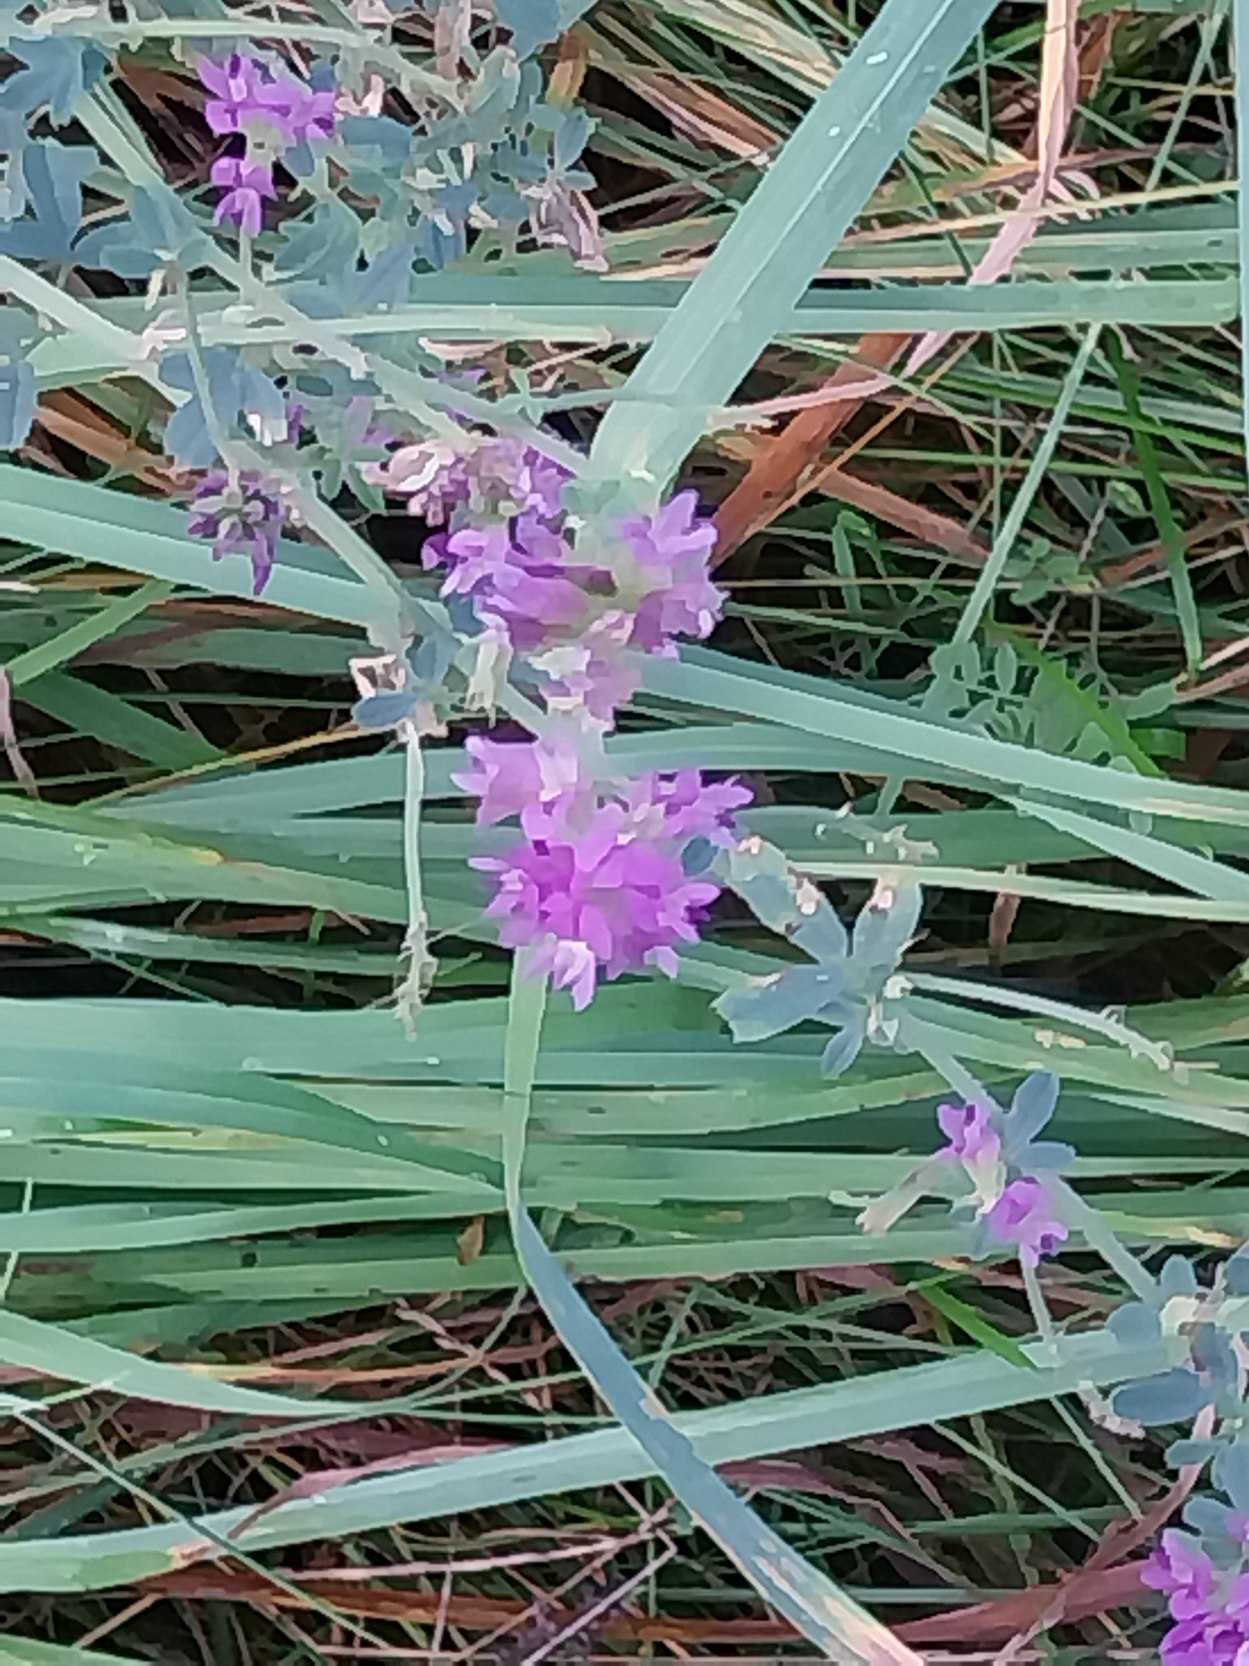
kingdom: Plantae
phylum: Tracheophyta
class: Magnoliopsida
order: Fabales
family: Fabaceae
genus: Medicago
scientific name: Medicago sativa
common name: Lucerne
